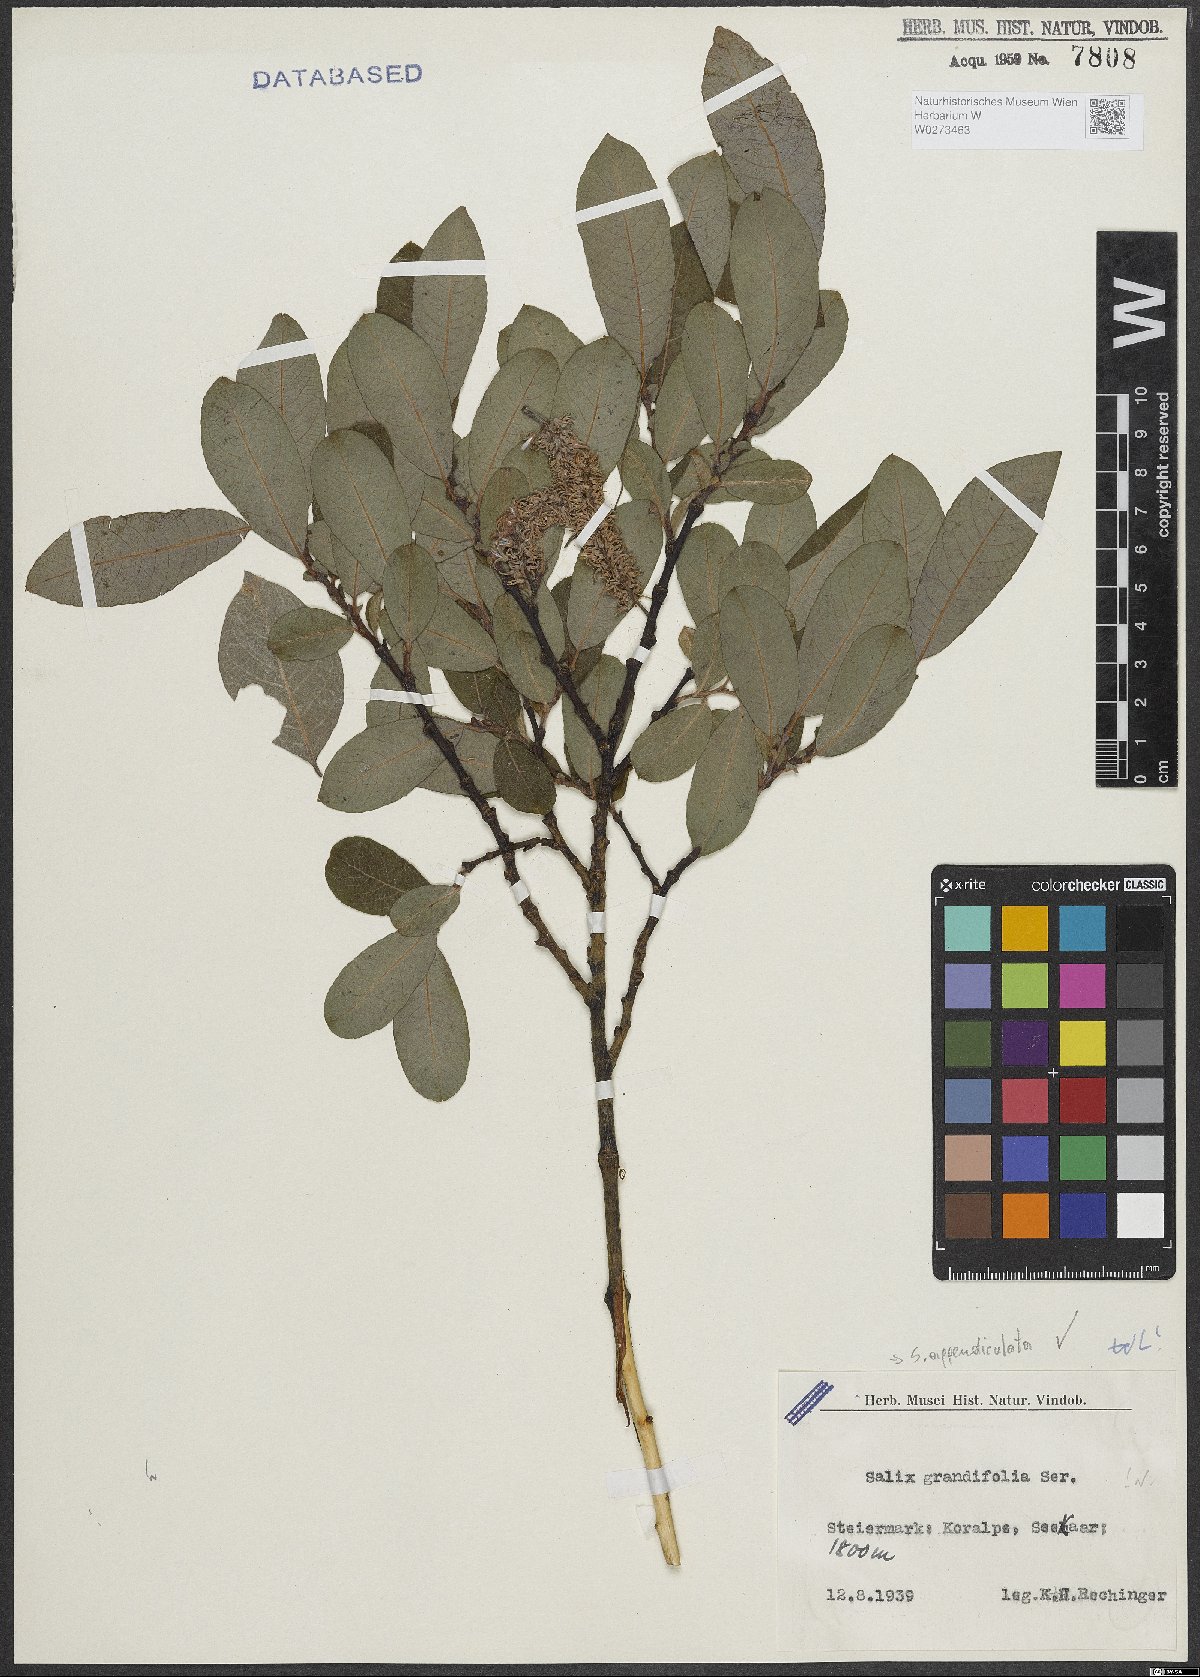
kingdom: Plantae
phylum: Tracheophyta
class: Magnoliopsida
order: Malpighiales
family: Salicaceae
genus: Salix
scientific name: Salix appendiculata
